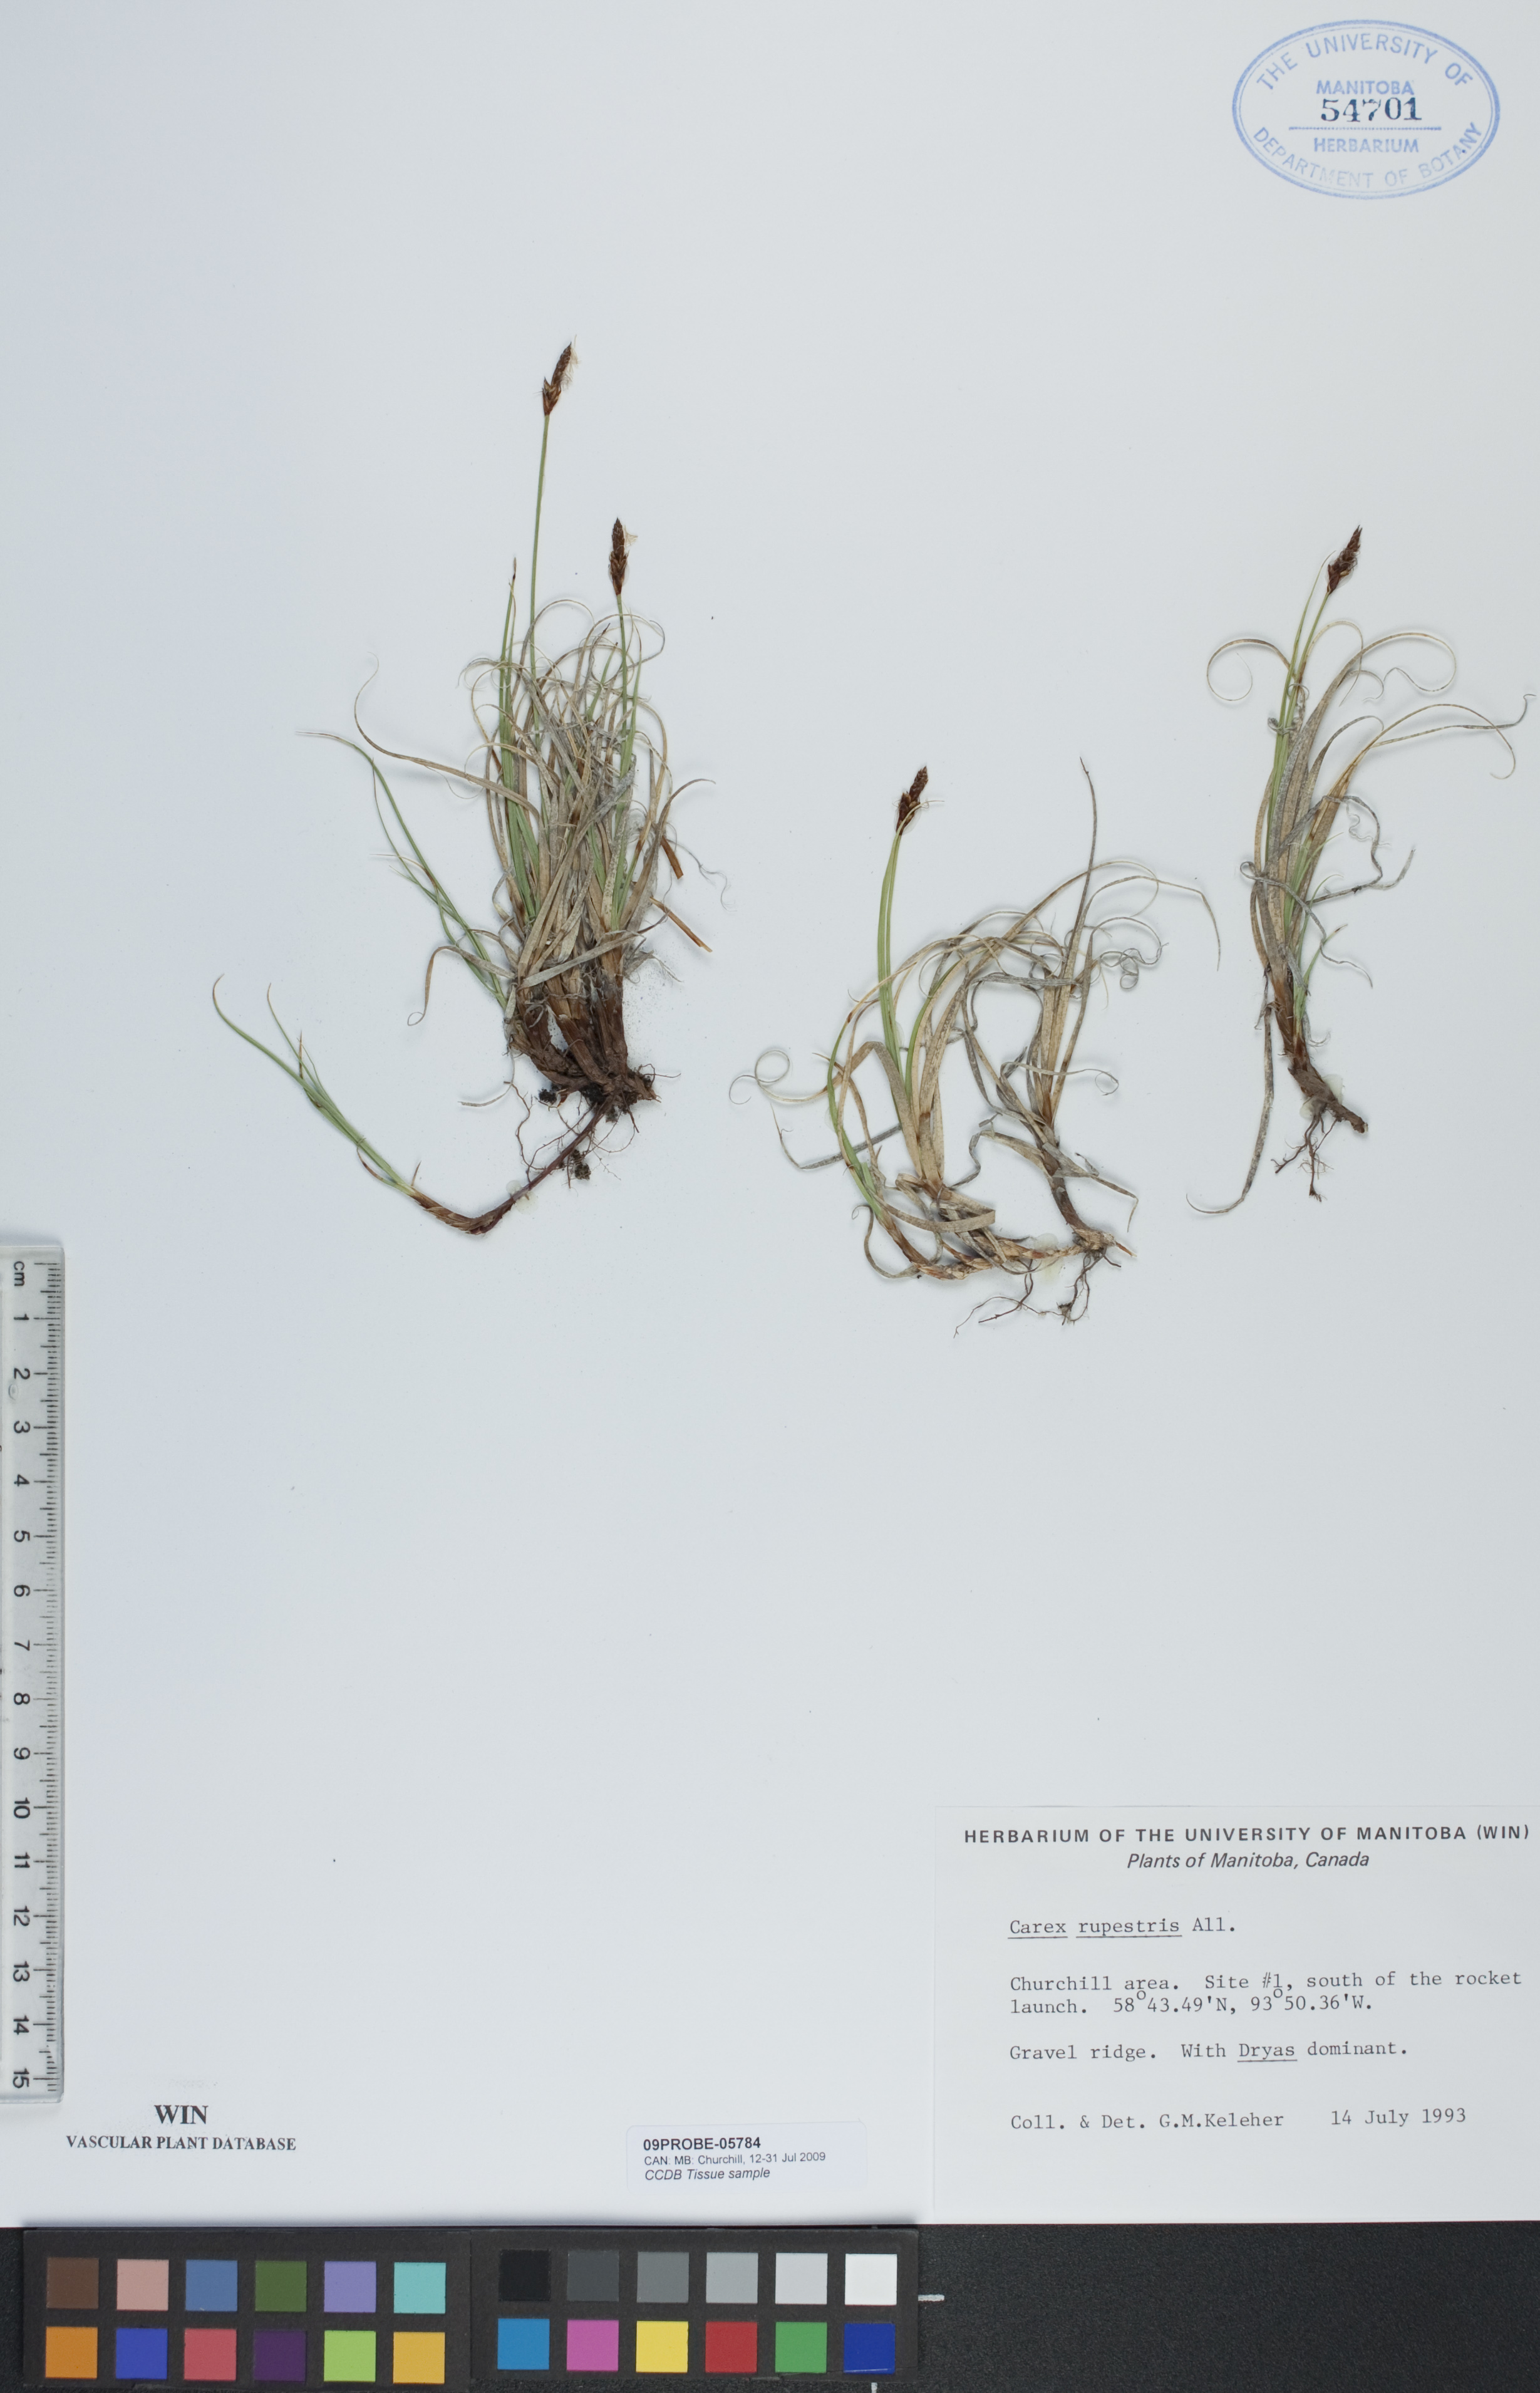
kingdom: Plantae
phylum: Tracheophyta
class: Liliopsida
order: Poales
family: Cyperaceae
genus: Carex
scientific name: Carex rupestris
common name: Rock sedge
